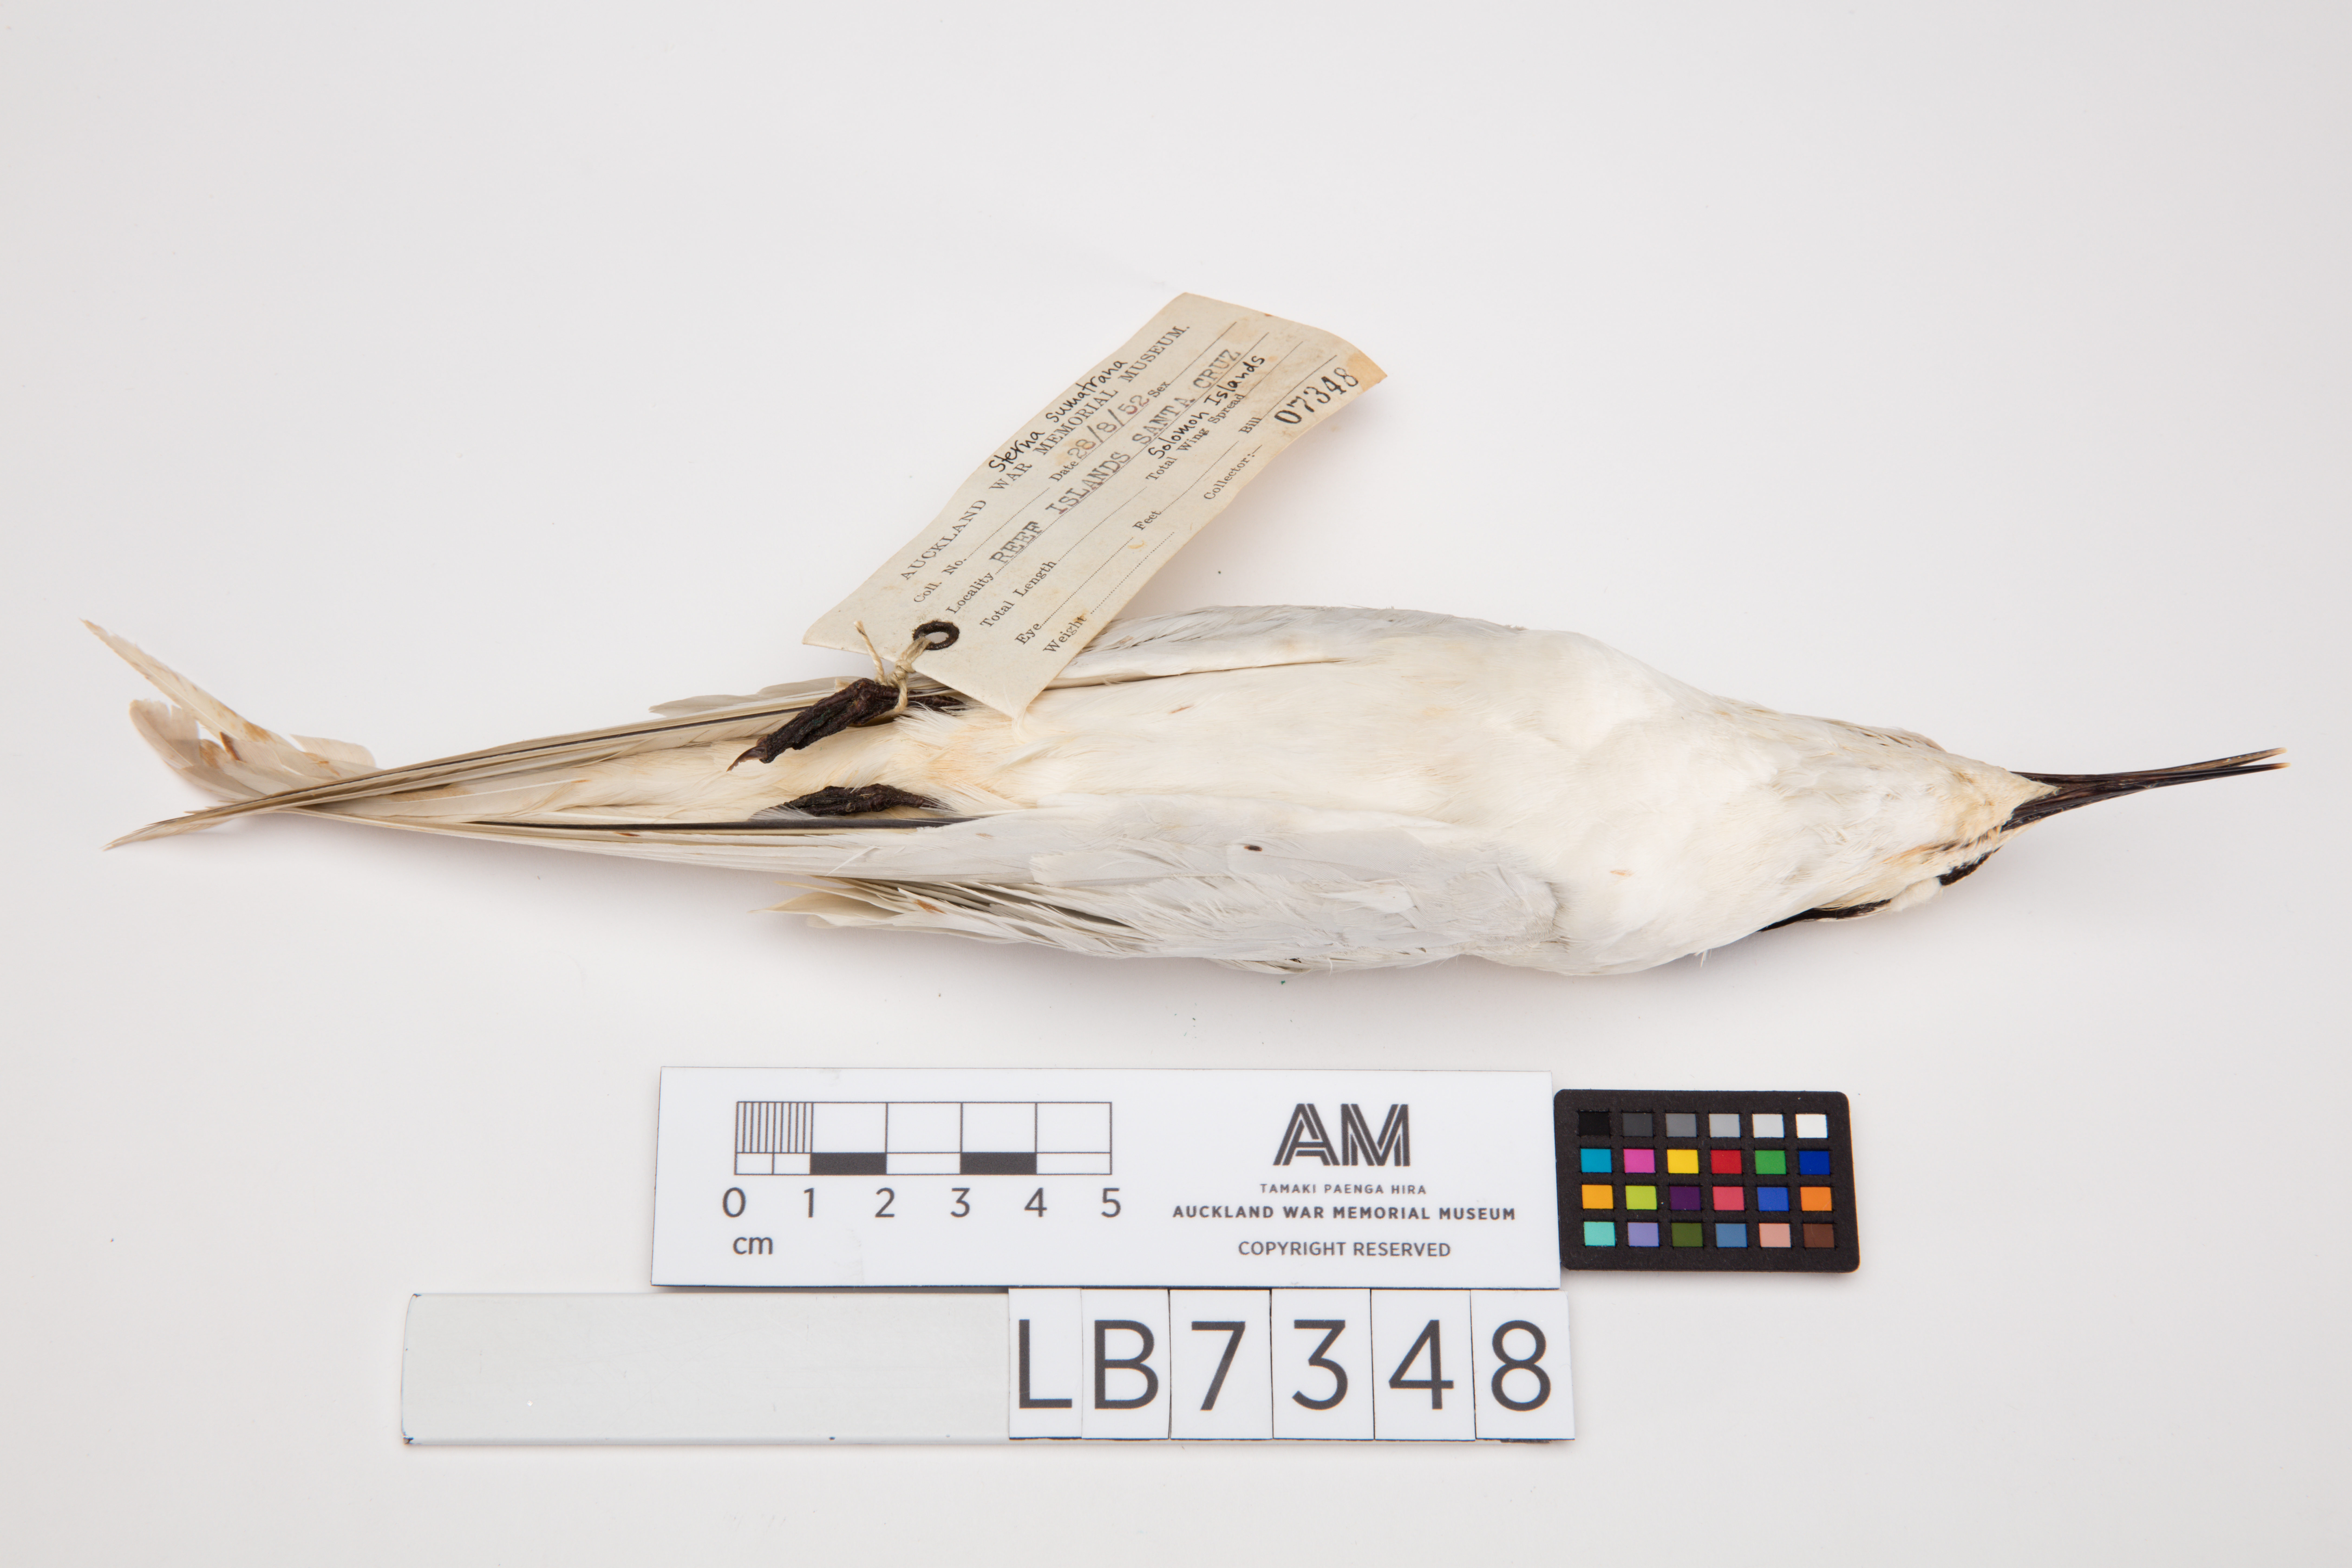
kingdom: Animalia
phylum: Chordata
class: Aves
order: Charadriiformes
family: Laridae
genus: Sterna
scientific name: Sterna sumatrana
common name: Black-naped tern
